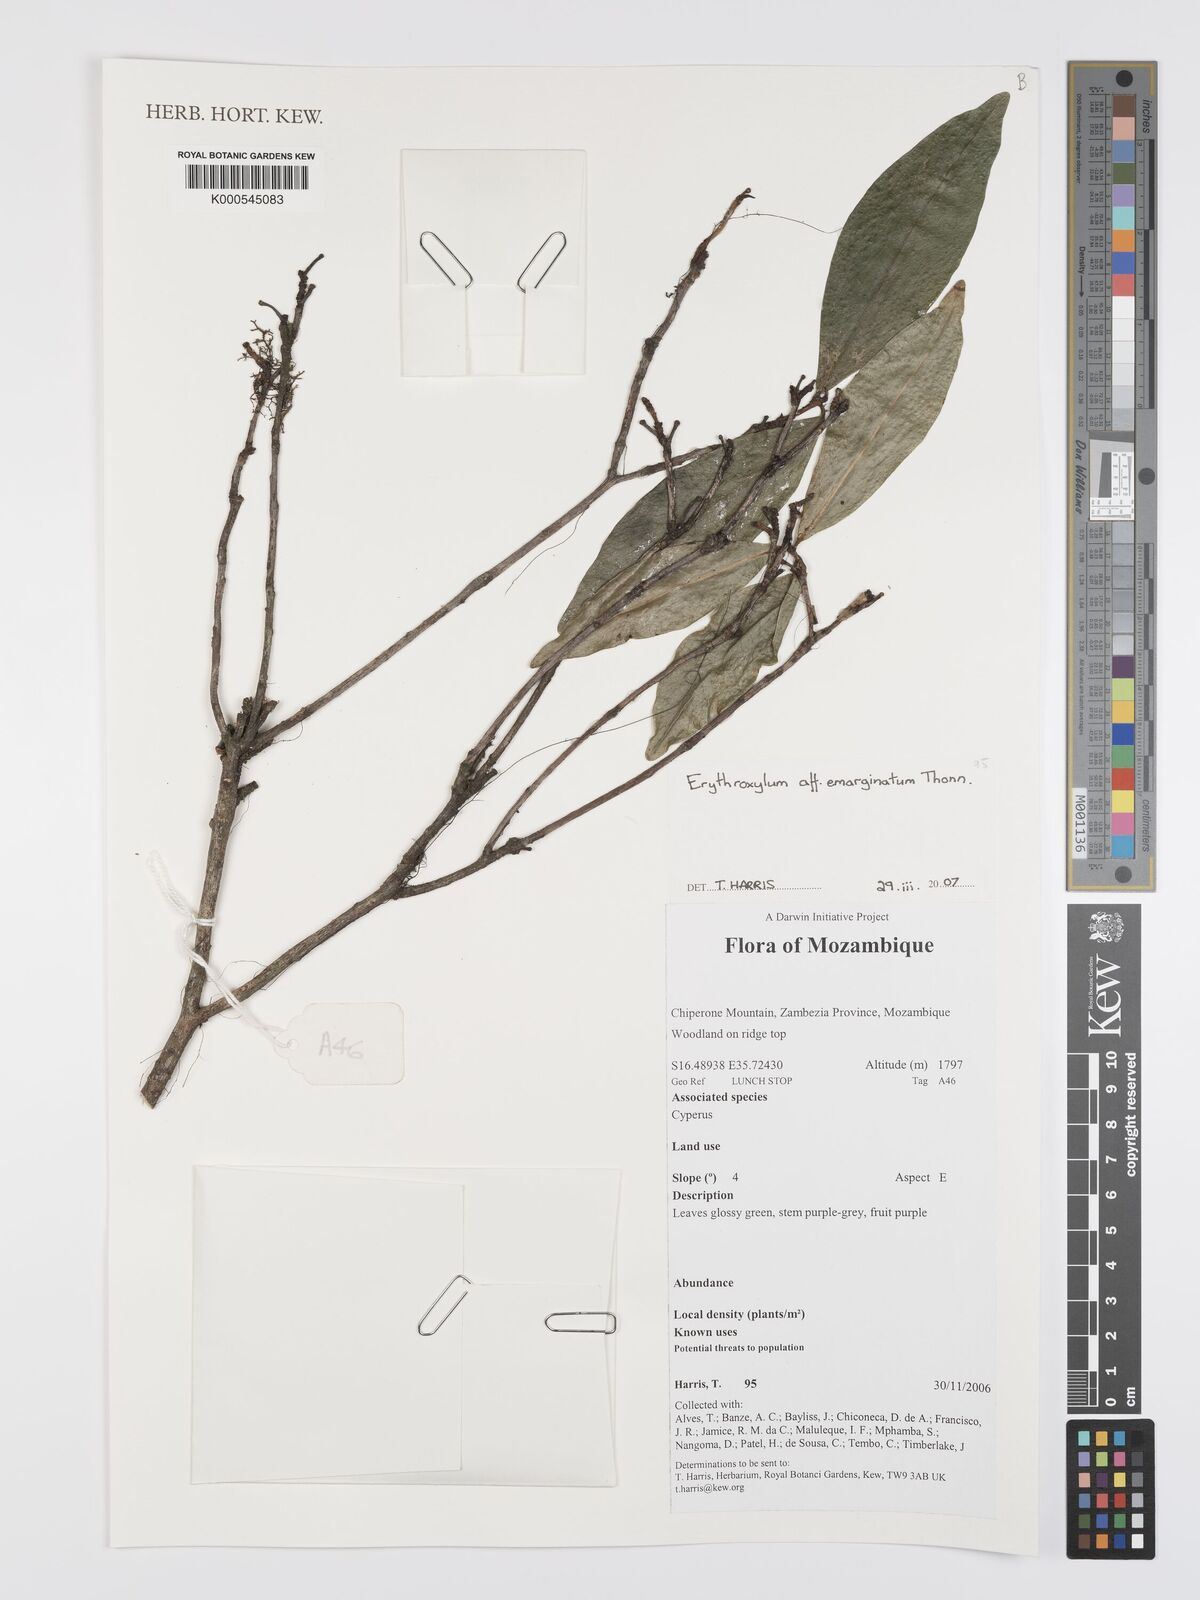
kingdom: Plantae
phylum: Tracheophyta
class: Magnoliopsida
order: Malpighiales
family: Erythroxylaceae
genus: Erythroxylum
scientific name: Erythroxylum emarginatum
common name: African coca-tree
